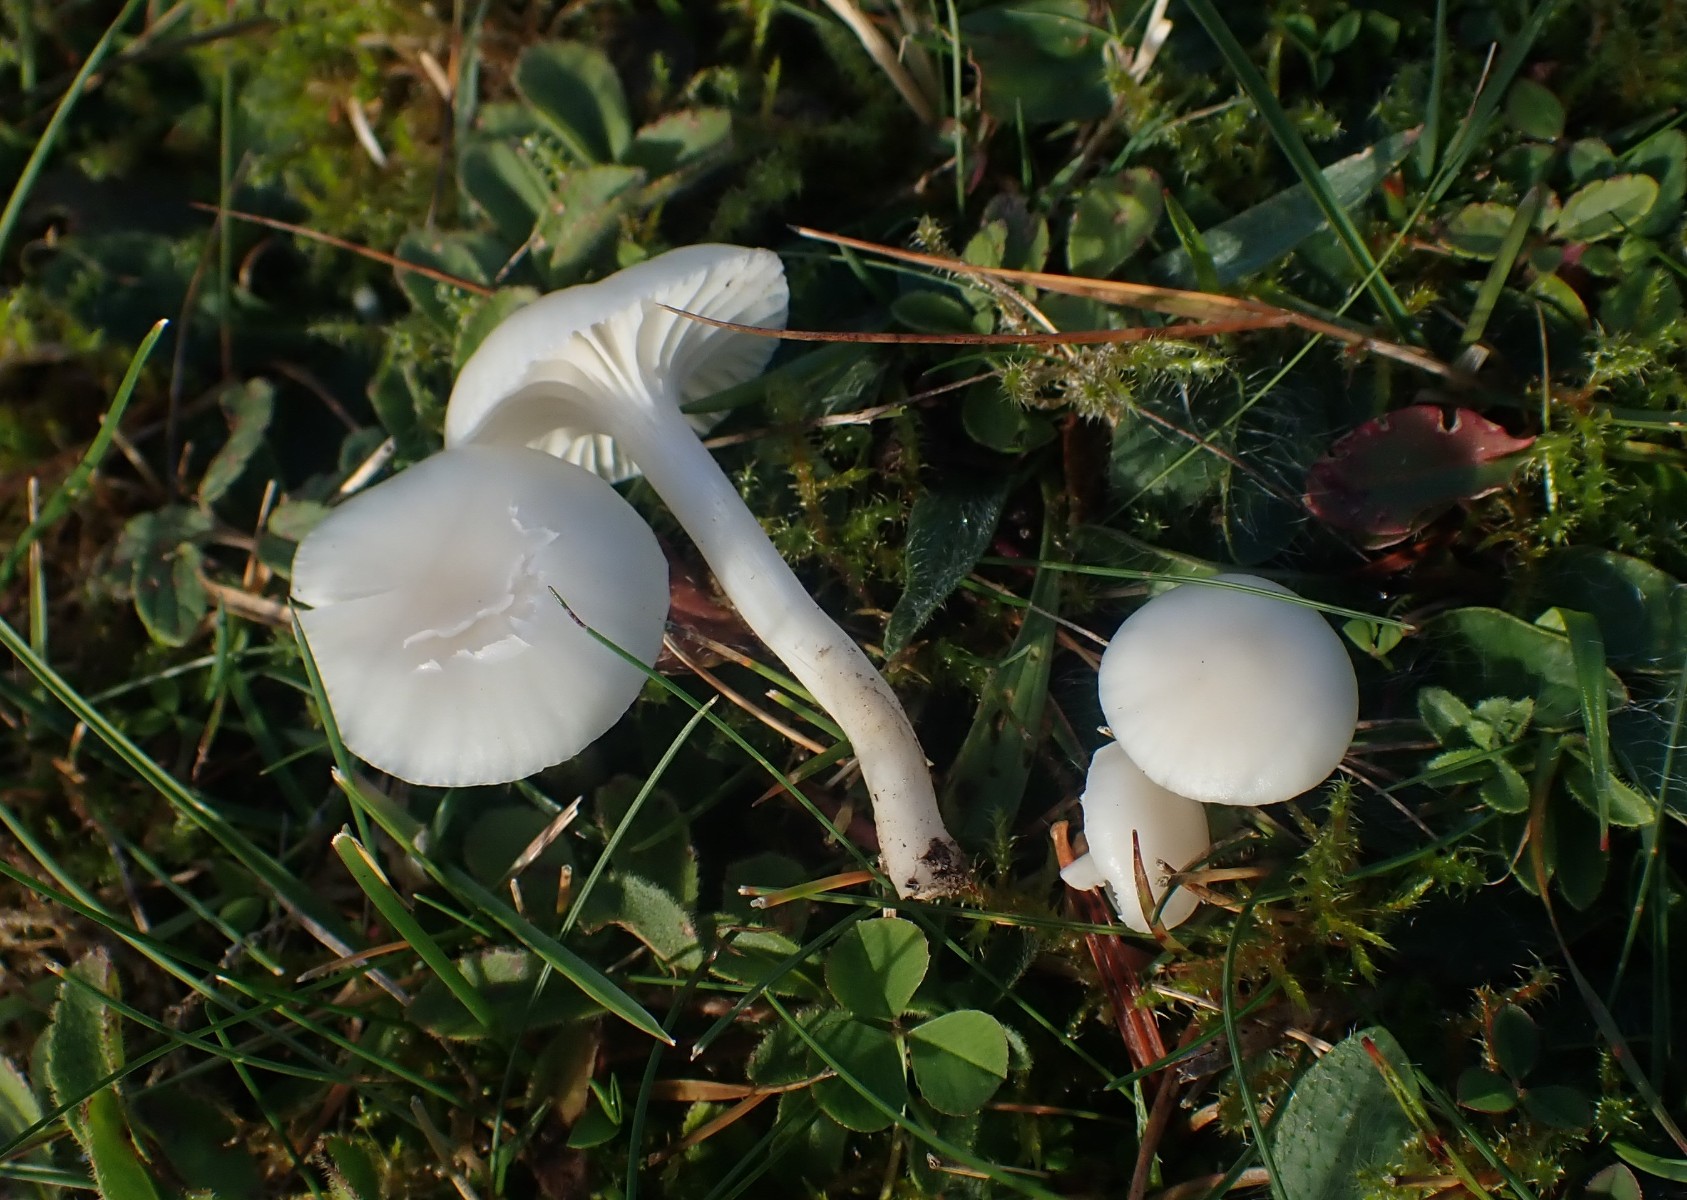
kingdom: Fungi
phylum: Basidiomycota
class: Agaricomycetes
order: Agaricales
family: Hygrophoraceae
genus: Cuphophyllus
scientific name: Cuphophyllus virgineus
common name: snehvid vokshat
